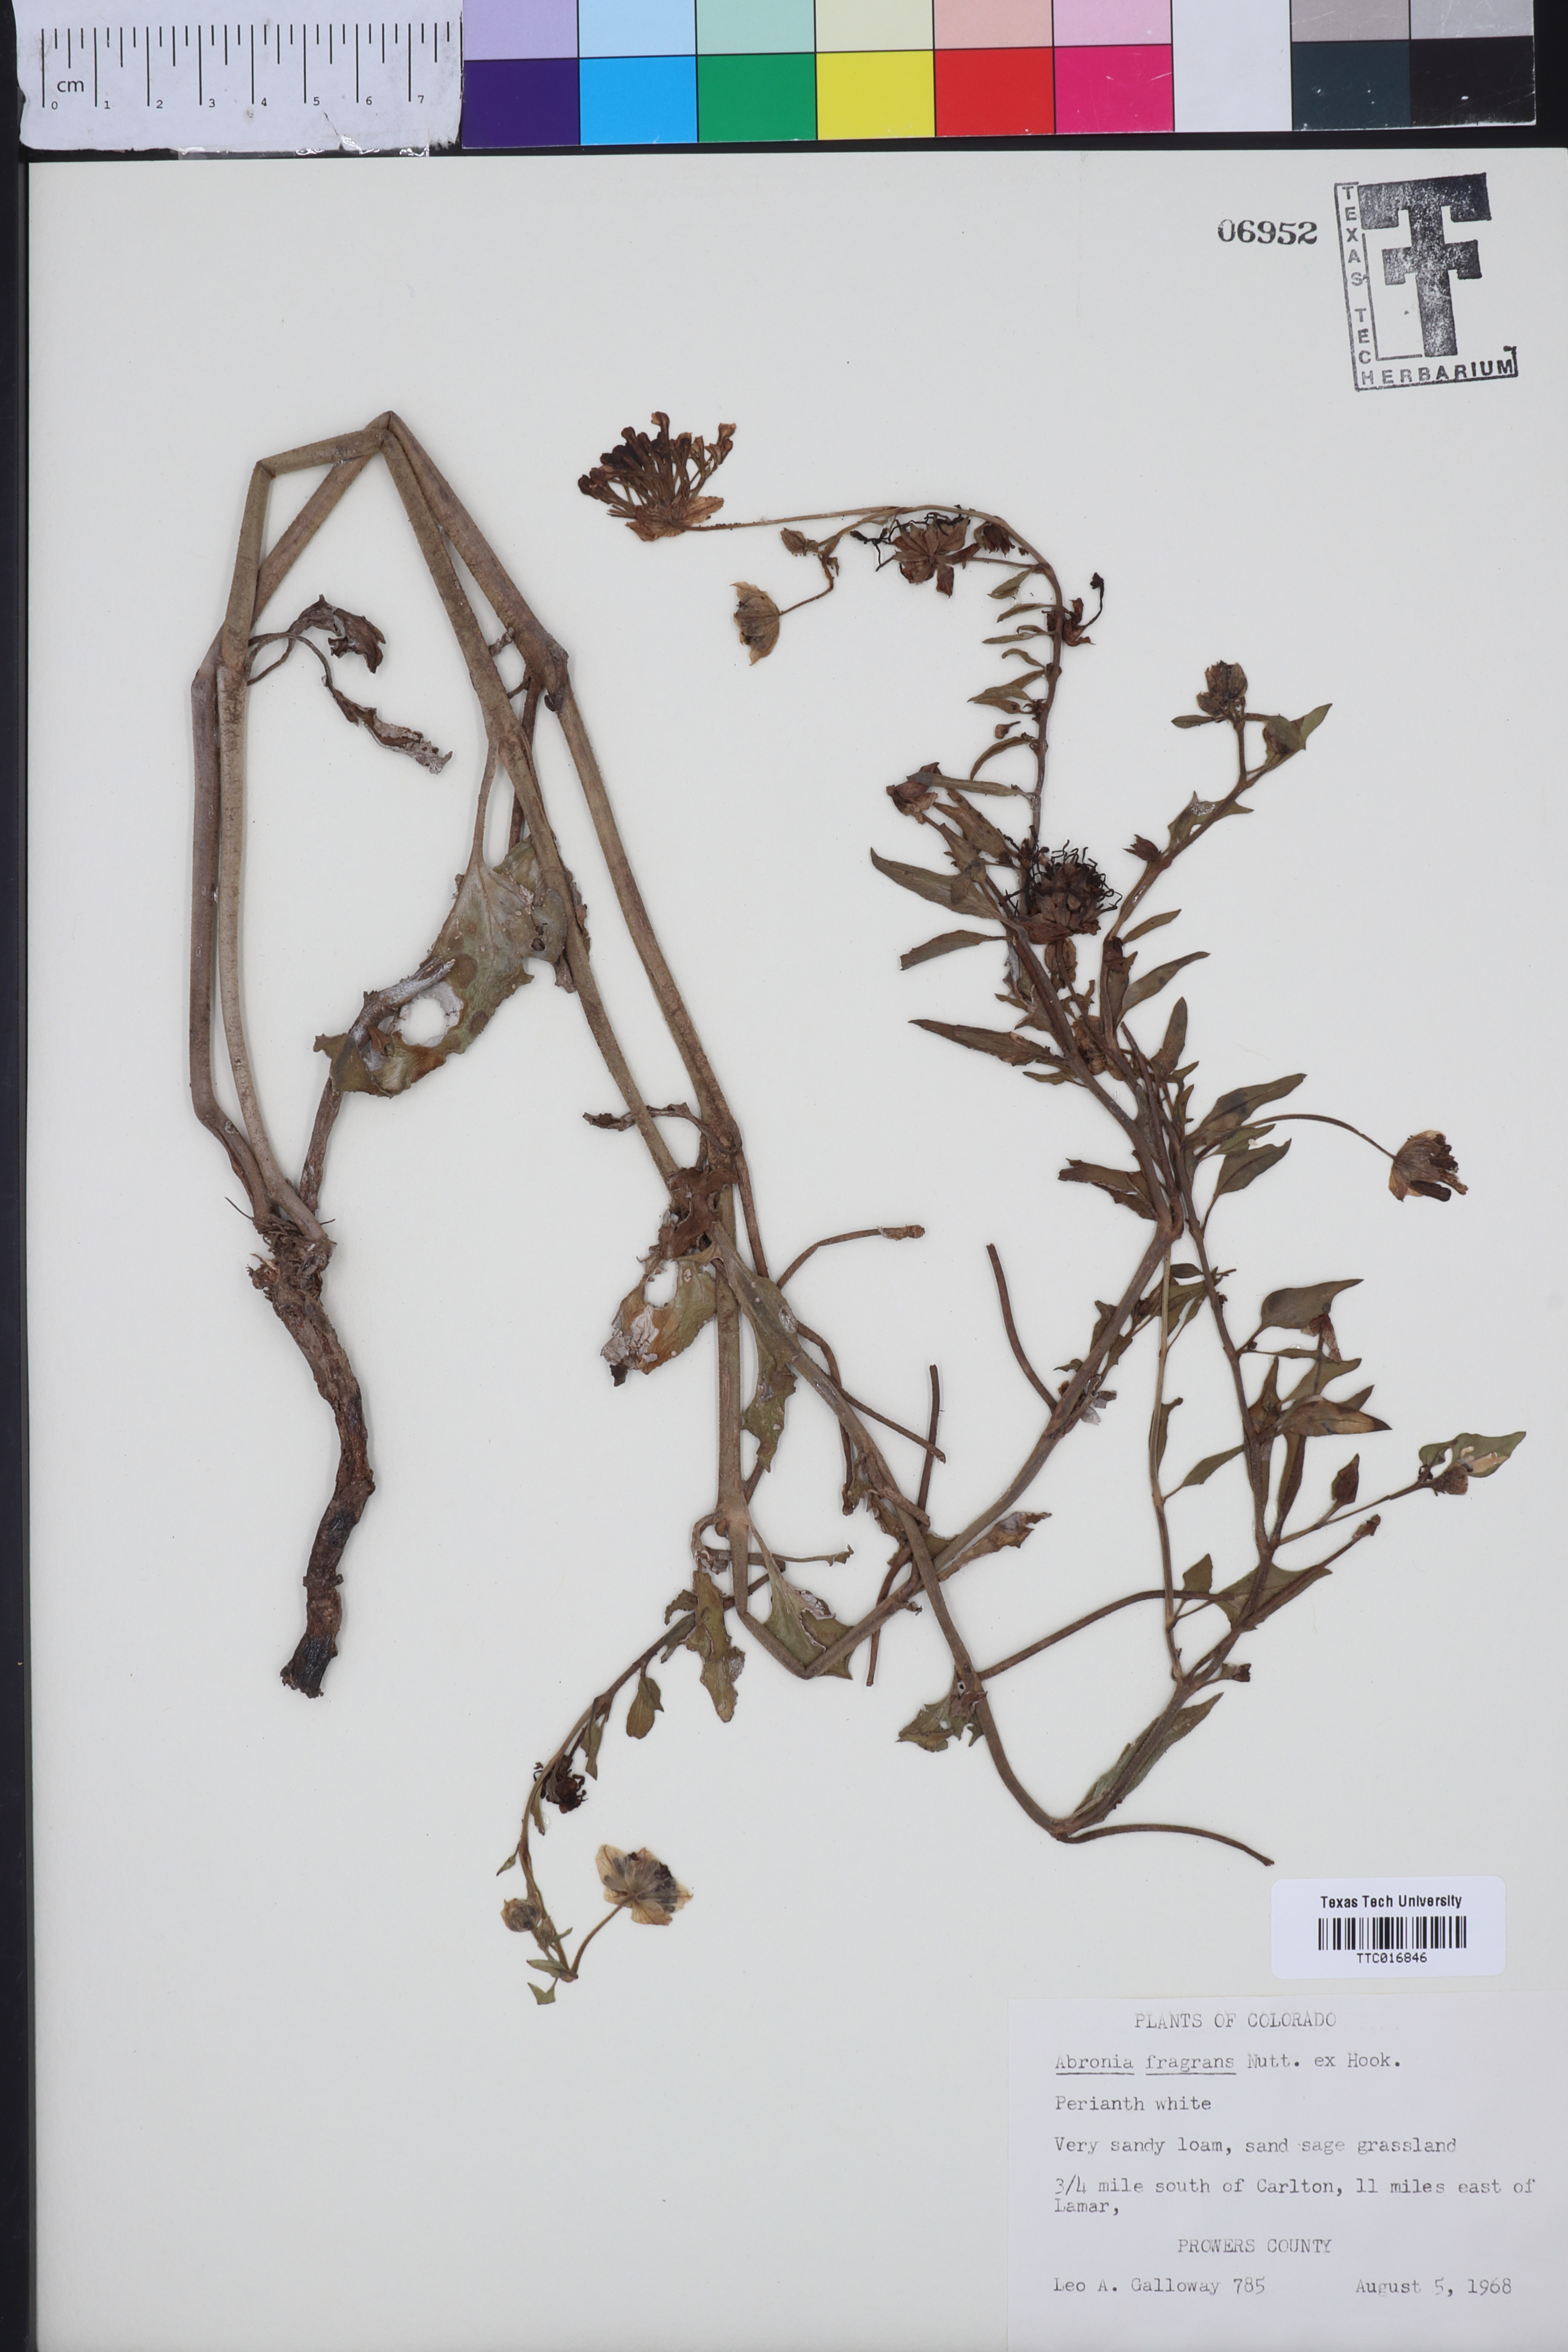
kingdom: Plantae
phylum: Tracheophyta
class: Magnoliopsida
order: Caryophyllales
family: Nyctaginaceae
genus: Abronia
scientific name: Abronia fragrans
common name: Fragrant sand-verbena
